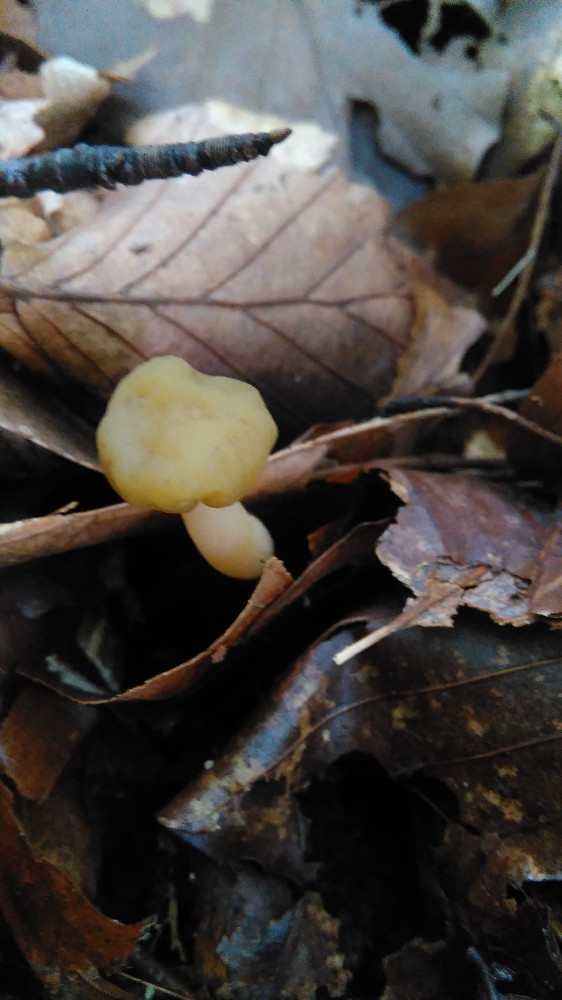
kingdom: Fungi
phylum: Ascomycota
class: Leotiomycetes
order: Leotiales
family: Leotiaceae
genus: Leotia
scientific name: Leotia lubrica
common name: ravsvamp
